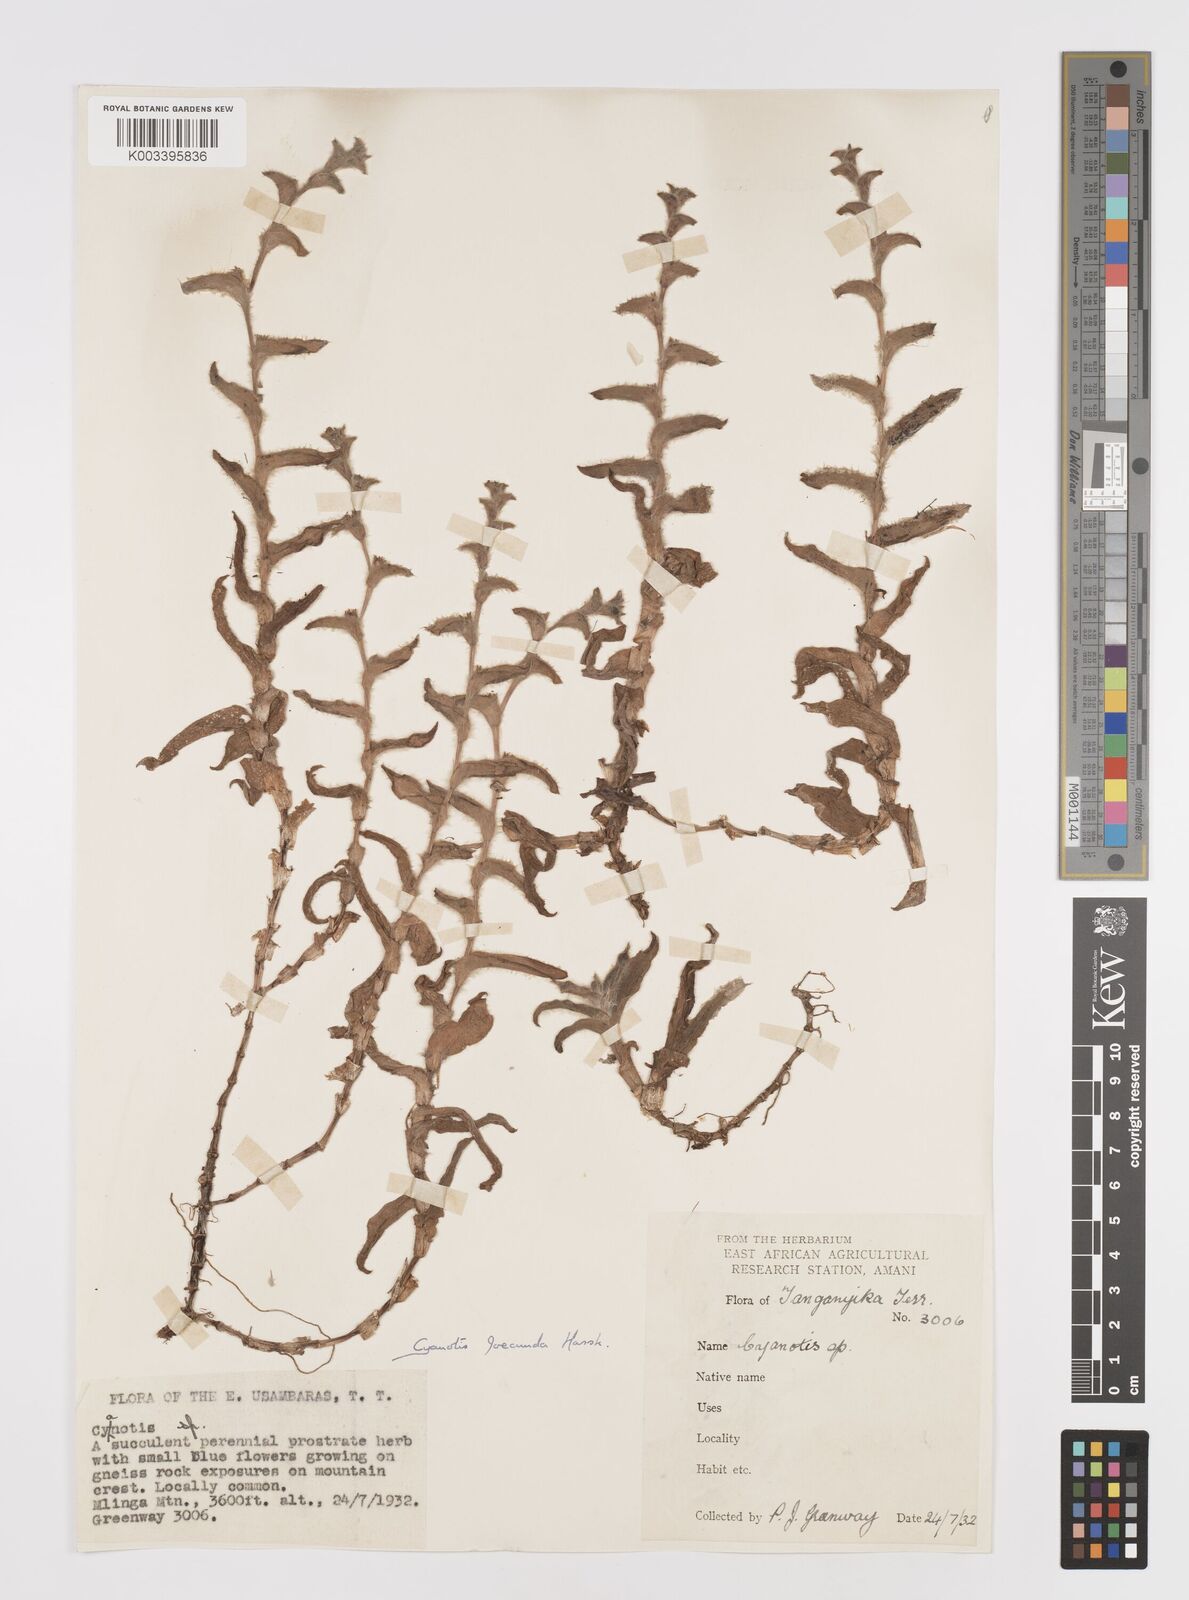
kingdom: Plantae
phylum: Tracheophyta
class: Liliopsida
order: Commelinales
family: Commelinaceae
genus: Cyanotis
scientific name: Cyanotis foecunda
